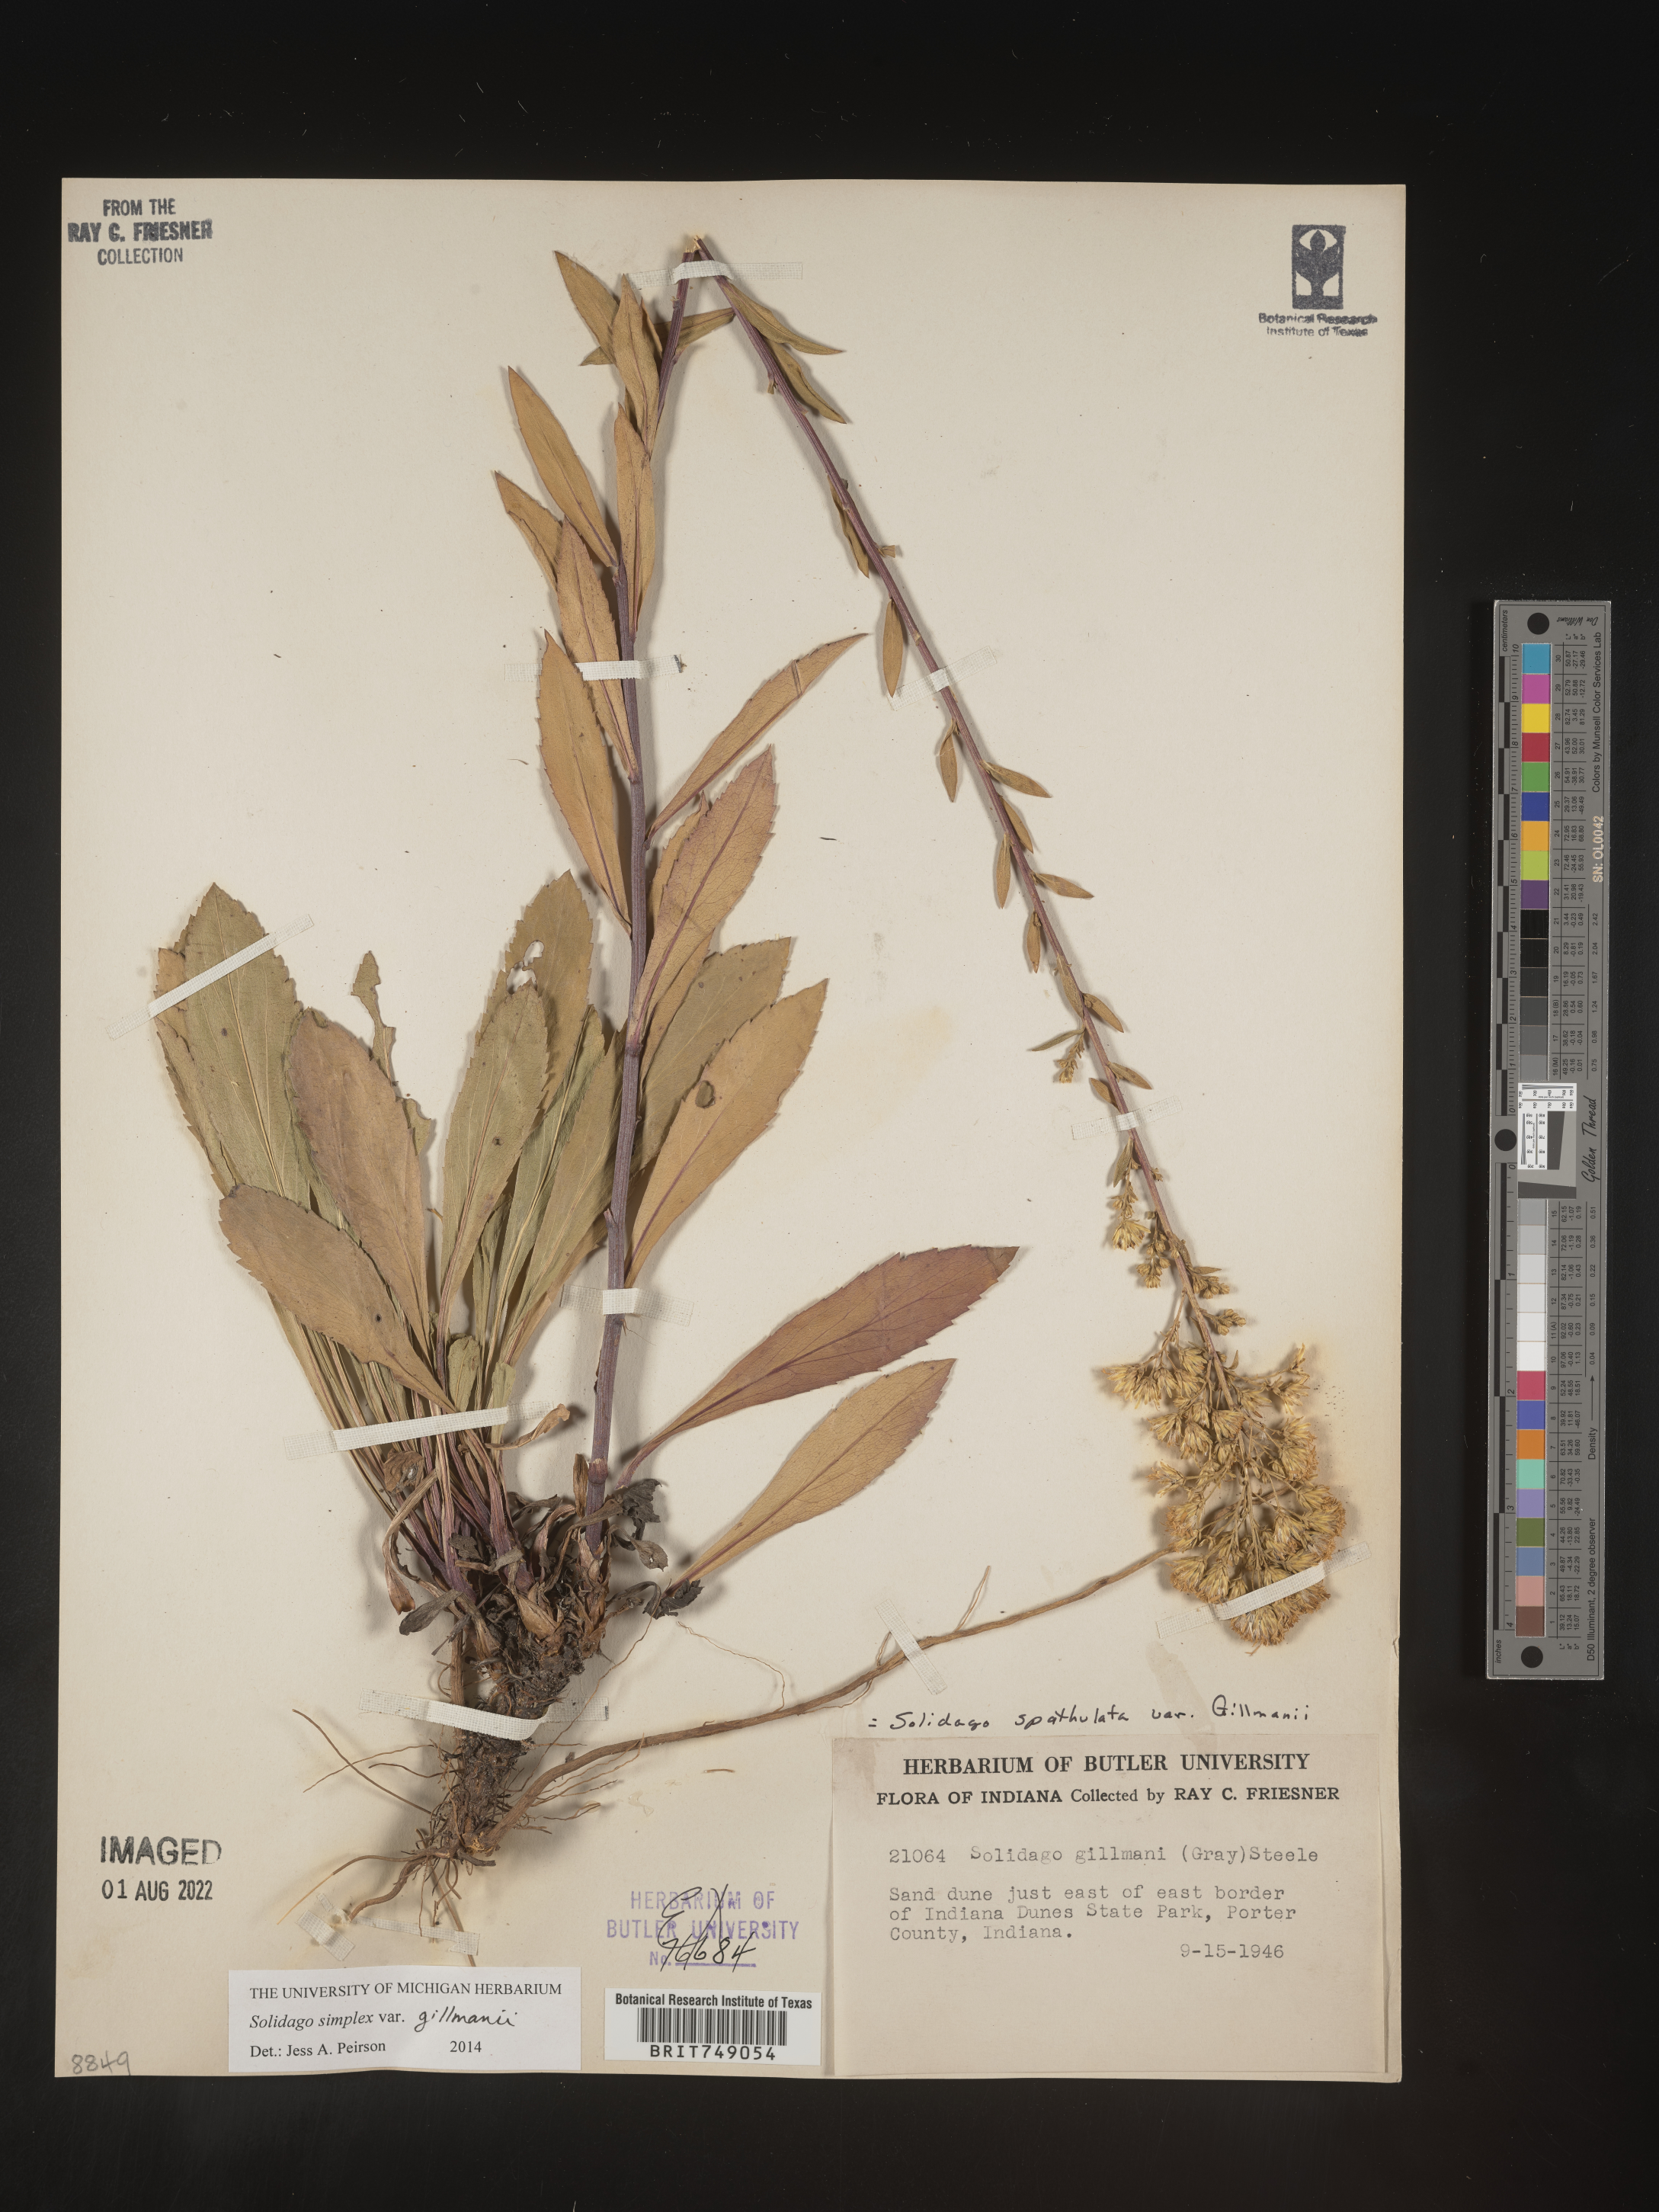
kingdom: Plantae
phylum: Tracheophyta
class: Magnoliopsida
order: Asterales
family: Asteraceae
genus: Solidago
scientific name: Solidago simplex
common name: Sticky goldenrod
